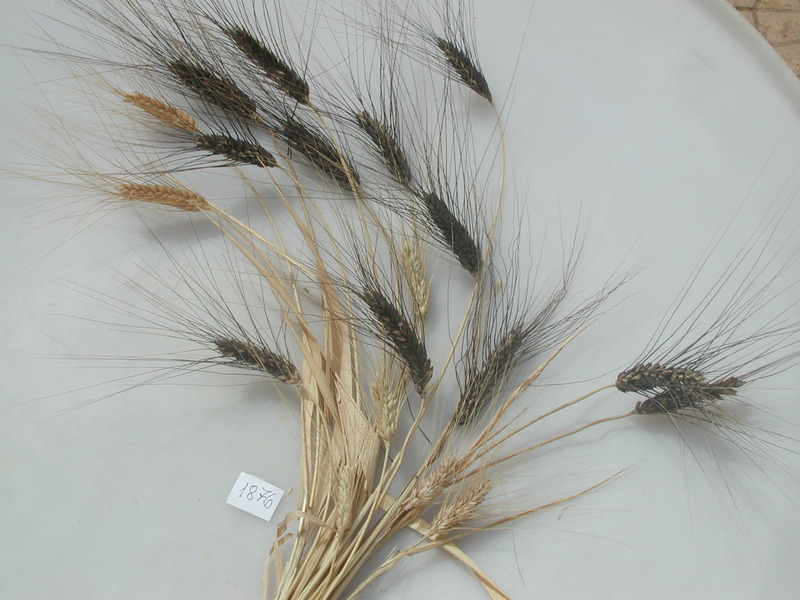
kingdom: Plantae
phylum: Tracheophyta
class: Liliopsida
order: Poales
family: Poaceae
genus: Triticum
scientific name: Triticum turgidum
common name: Wheat
